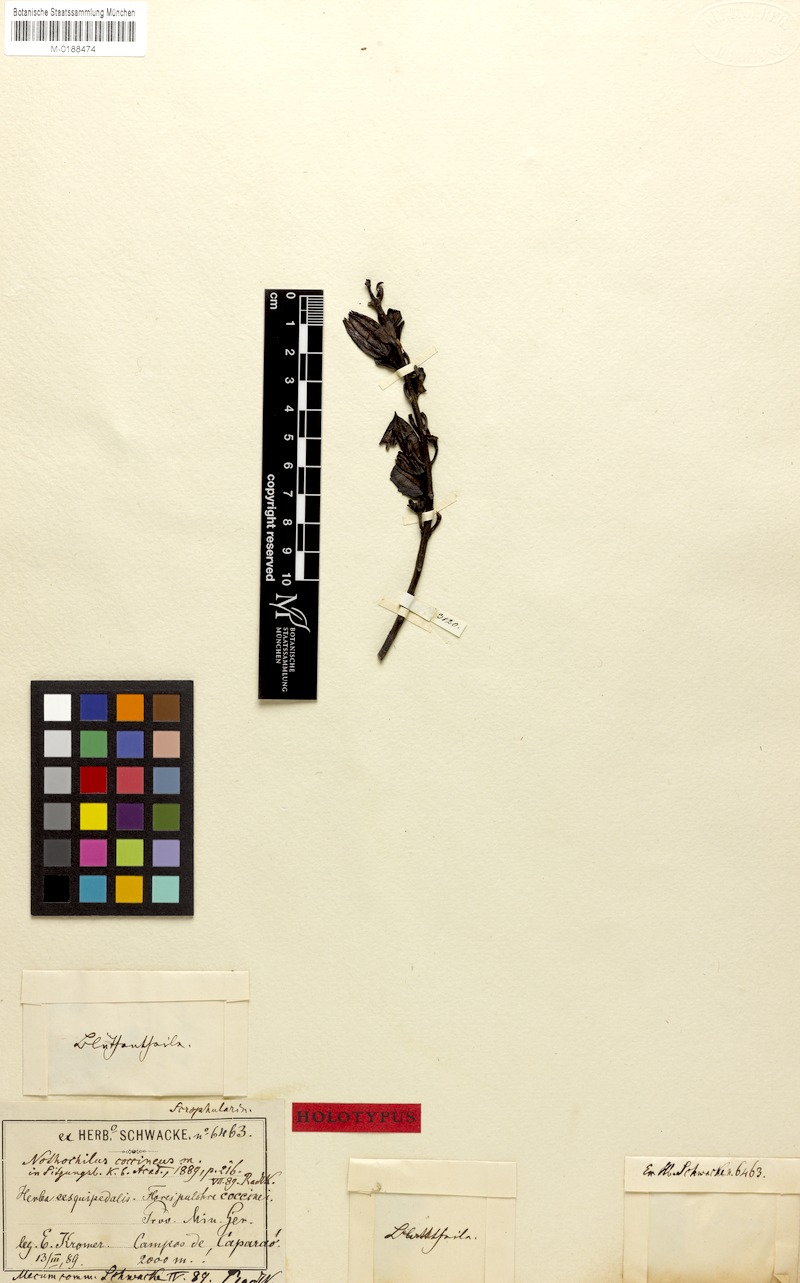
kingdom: Plantae
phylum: Tracheophyta
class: Magnoliopsida
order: Lamiales
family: Orobanchaceae
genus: Nothochilus
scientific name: Nothochilus coccineus
